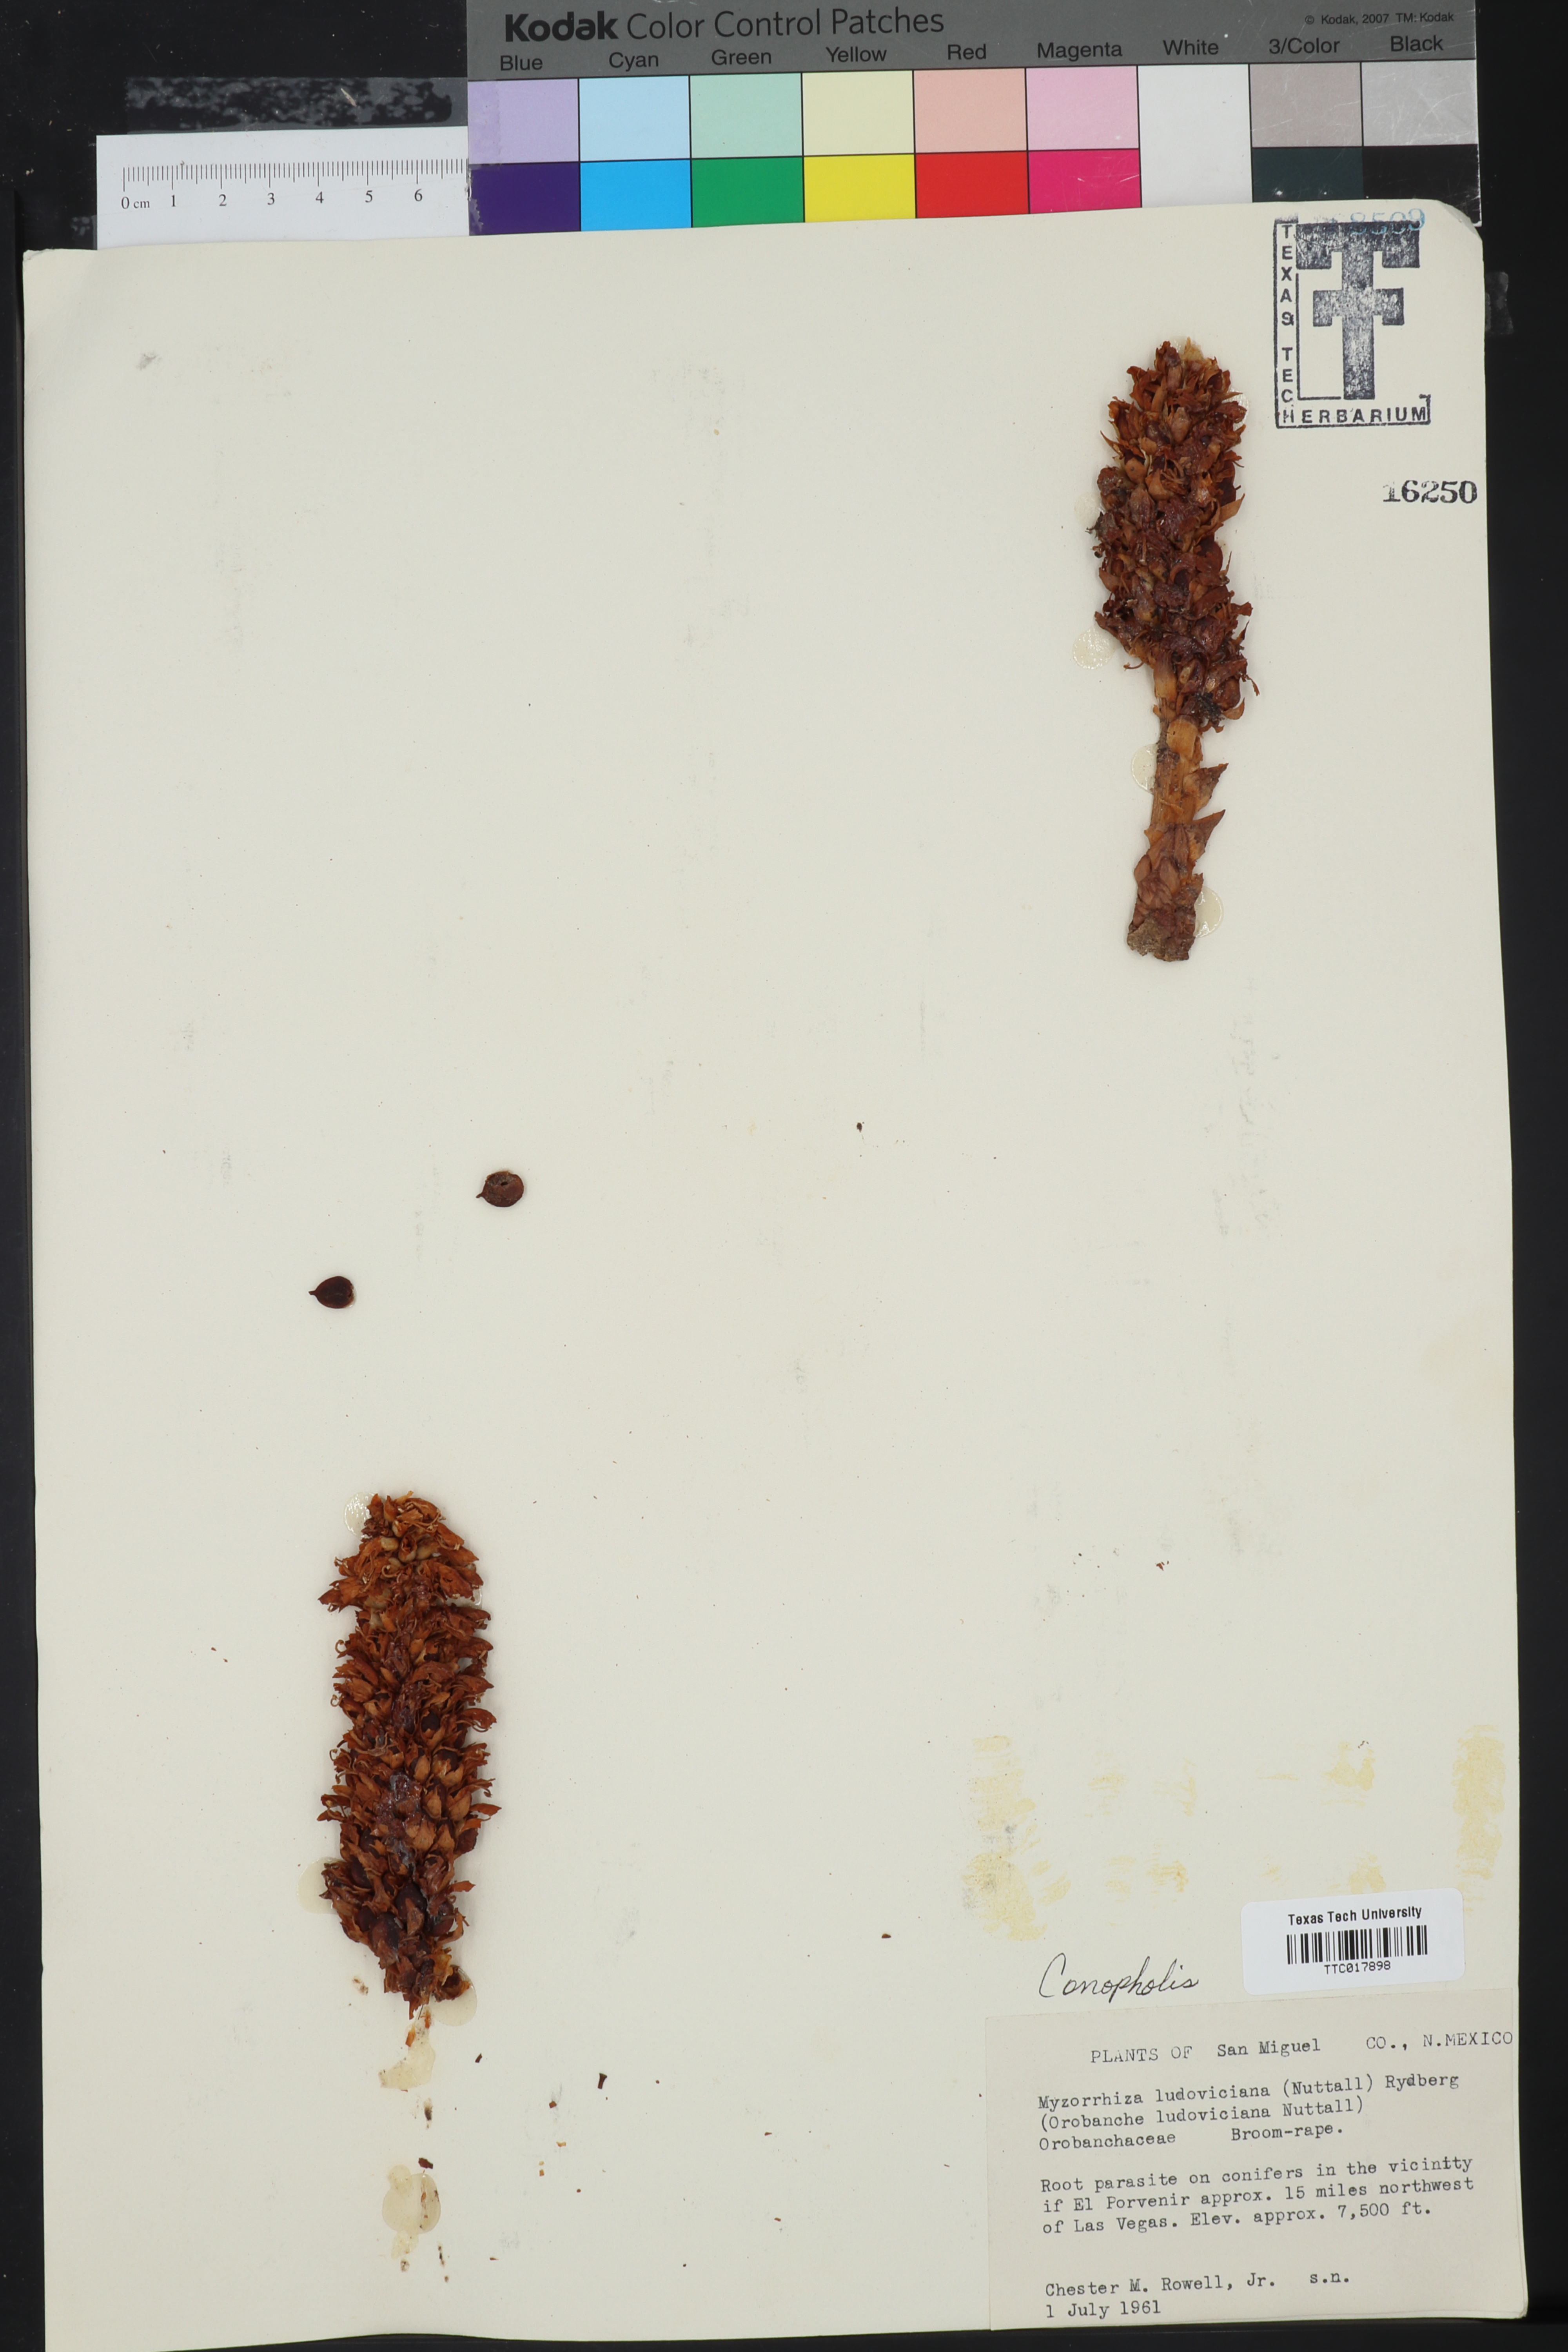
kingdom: Plantae
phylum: Tracheophyta
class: Magnoliopsida
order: Lamiales
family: Orobanchaceae
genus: Conopholis
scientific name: Conopholis alpina
